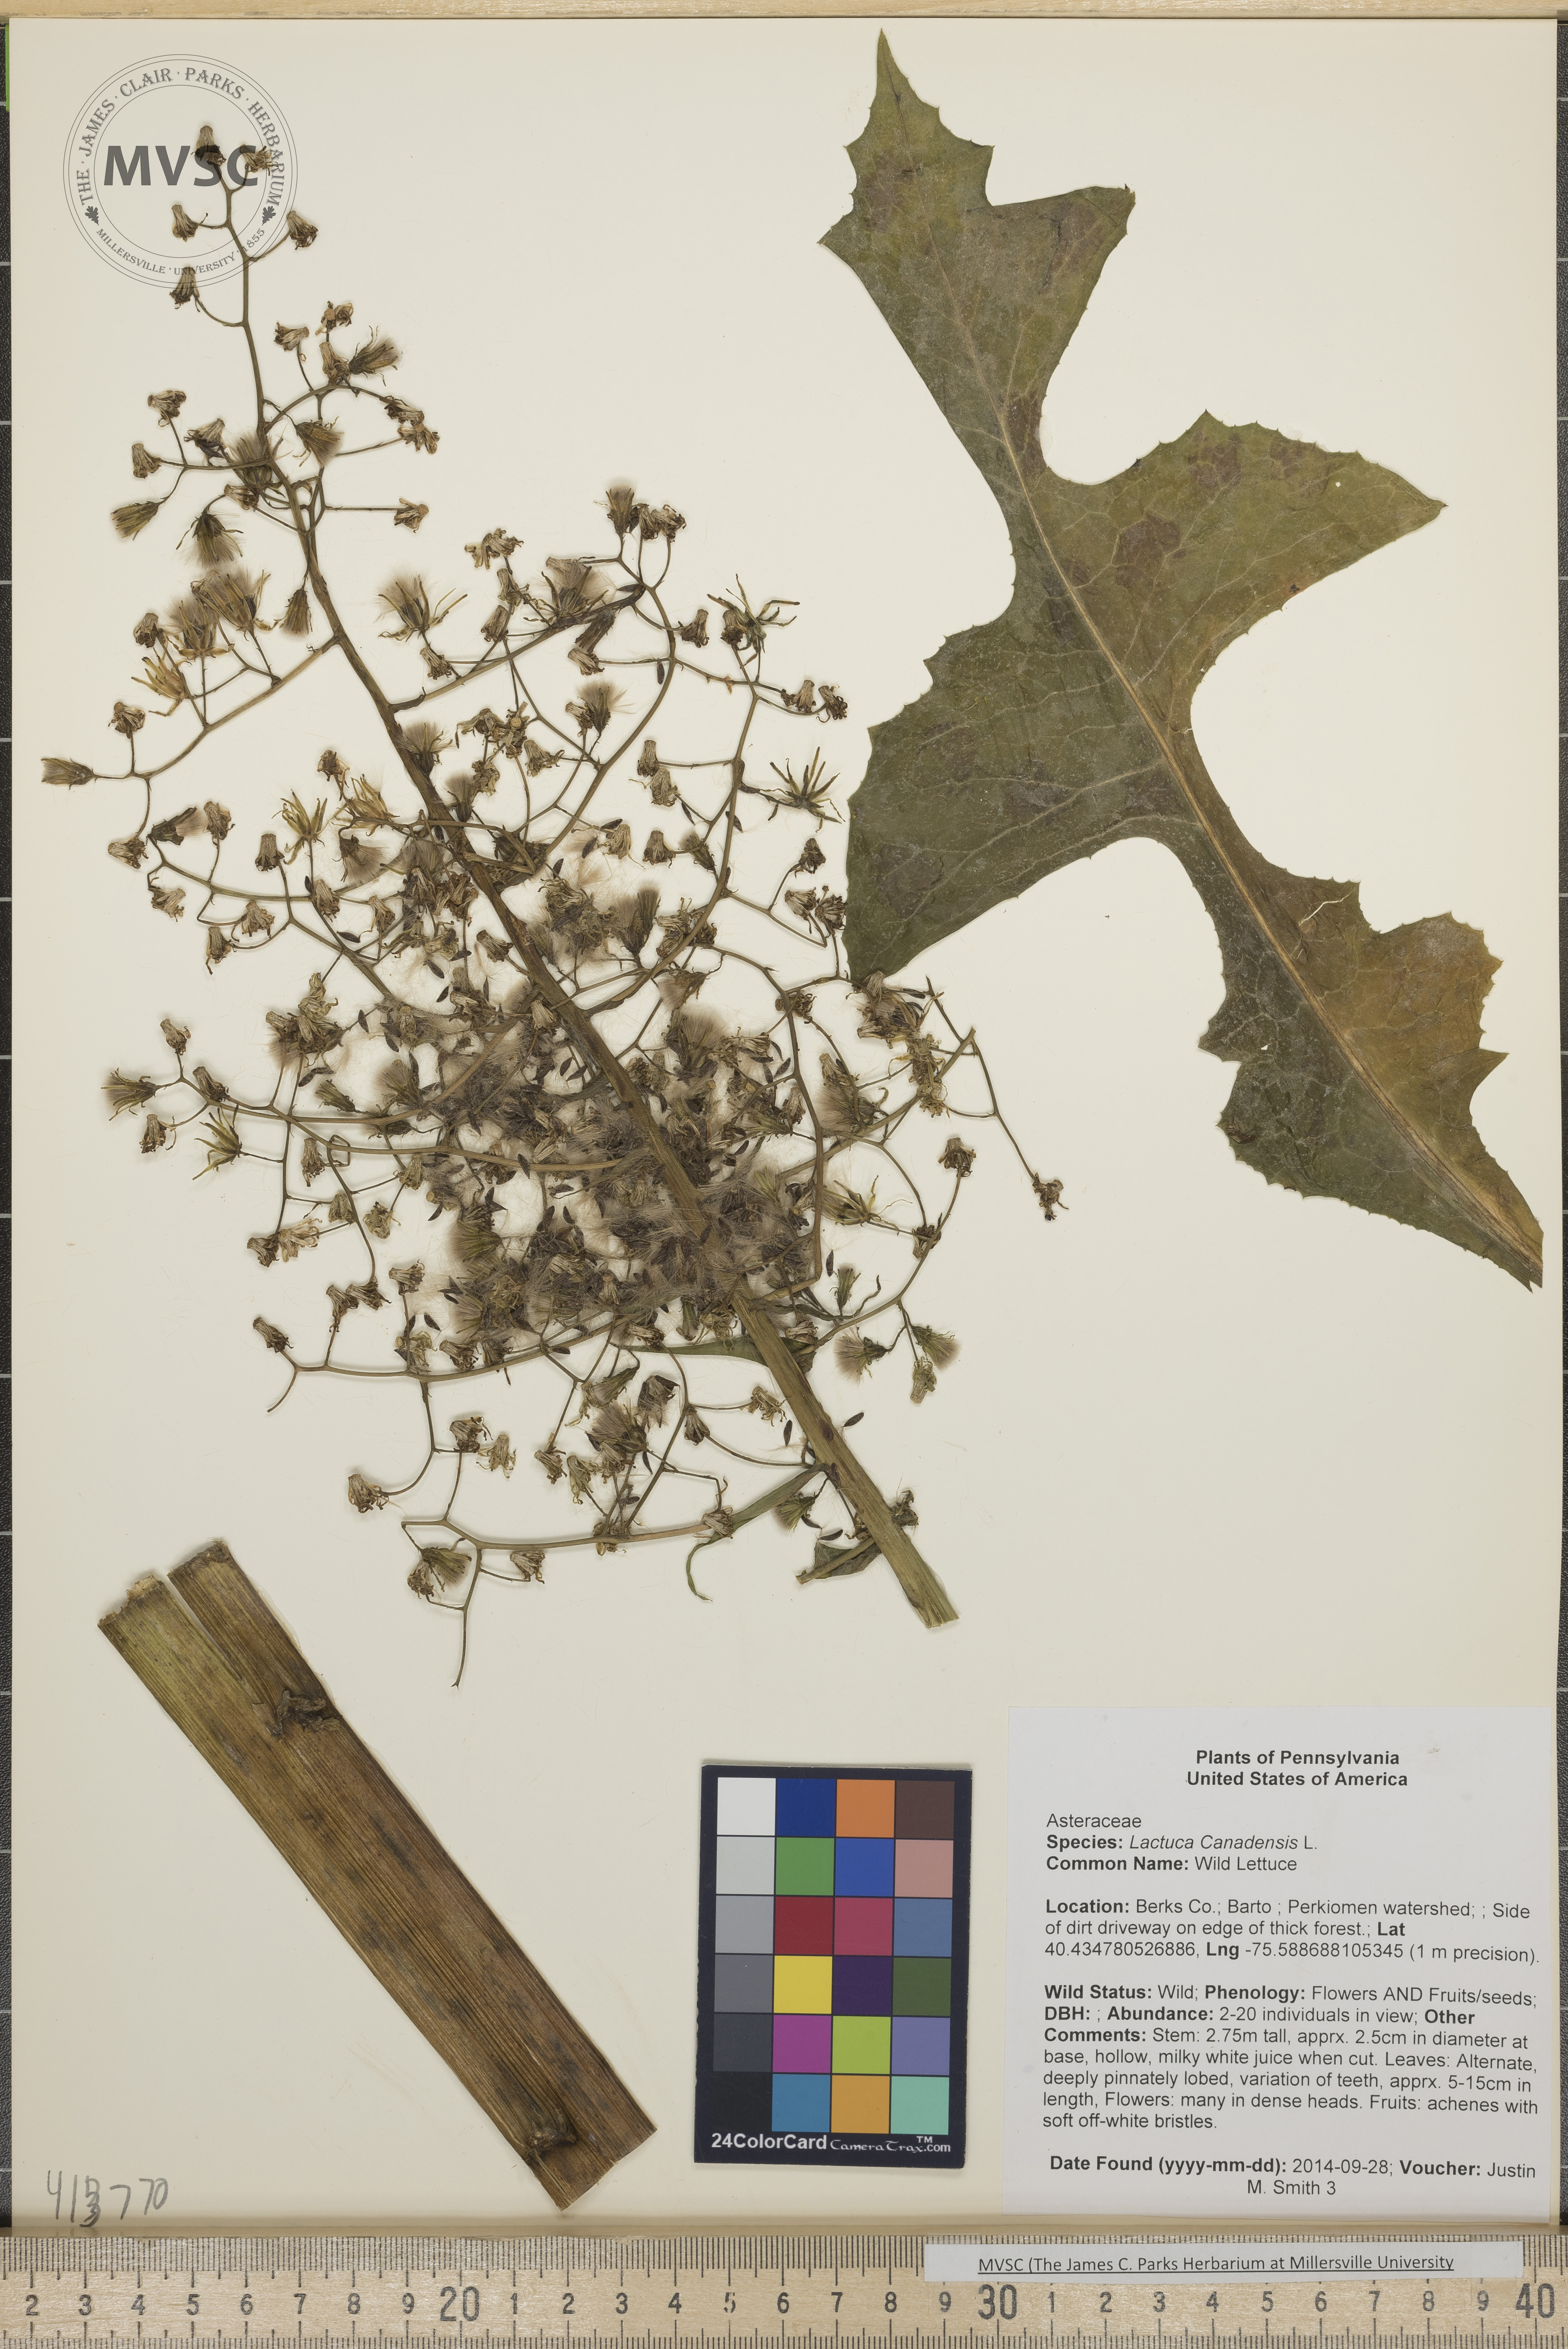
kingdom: Plantae
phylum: Tracheophyta
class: Magnoliopsida
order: Asterales
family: Asteraceae
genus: Lactuca
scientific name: Lactuca canadensis
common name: Wild Lettuce
